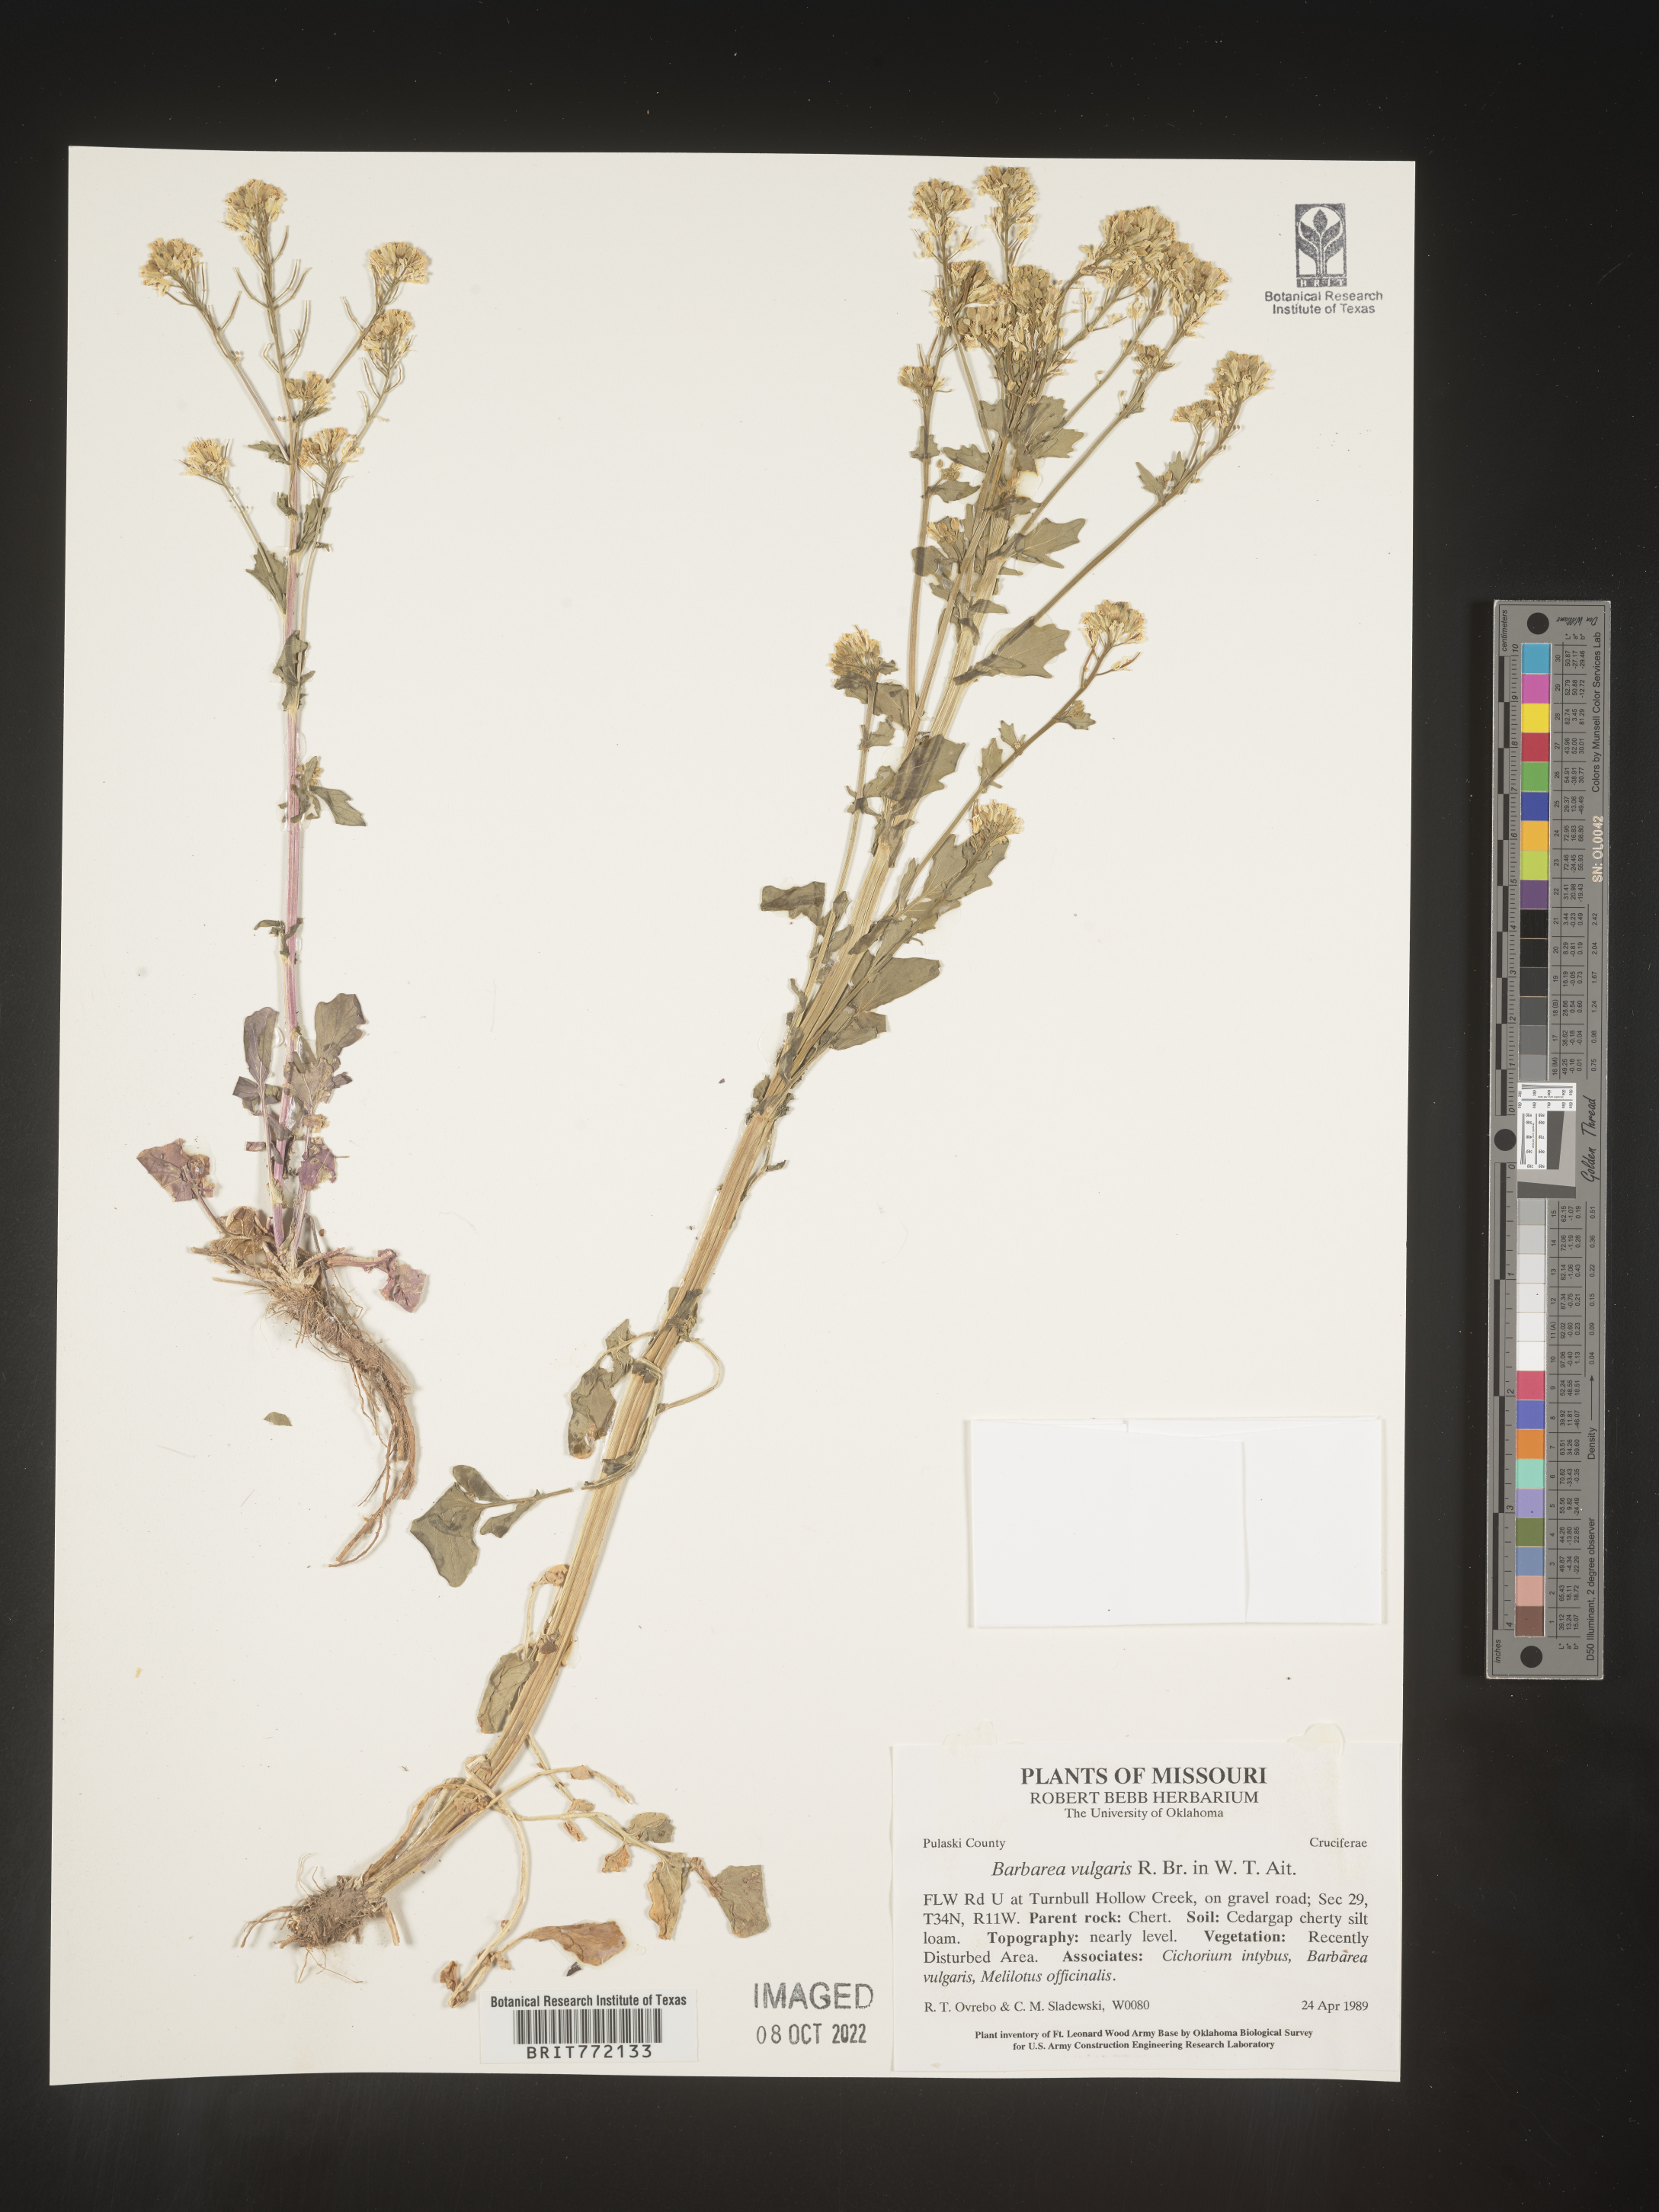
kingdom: Plantae
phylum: Tracheophyta
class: Magnoliopsida
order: Brassicales
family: Brassicaceae
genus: Barbarea
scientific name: Barbarea vulgaris
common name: Cressy-greens
